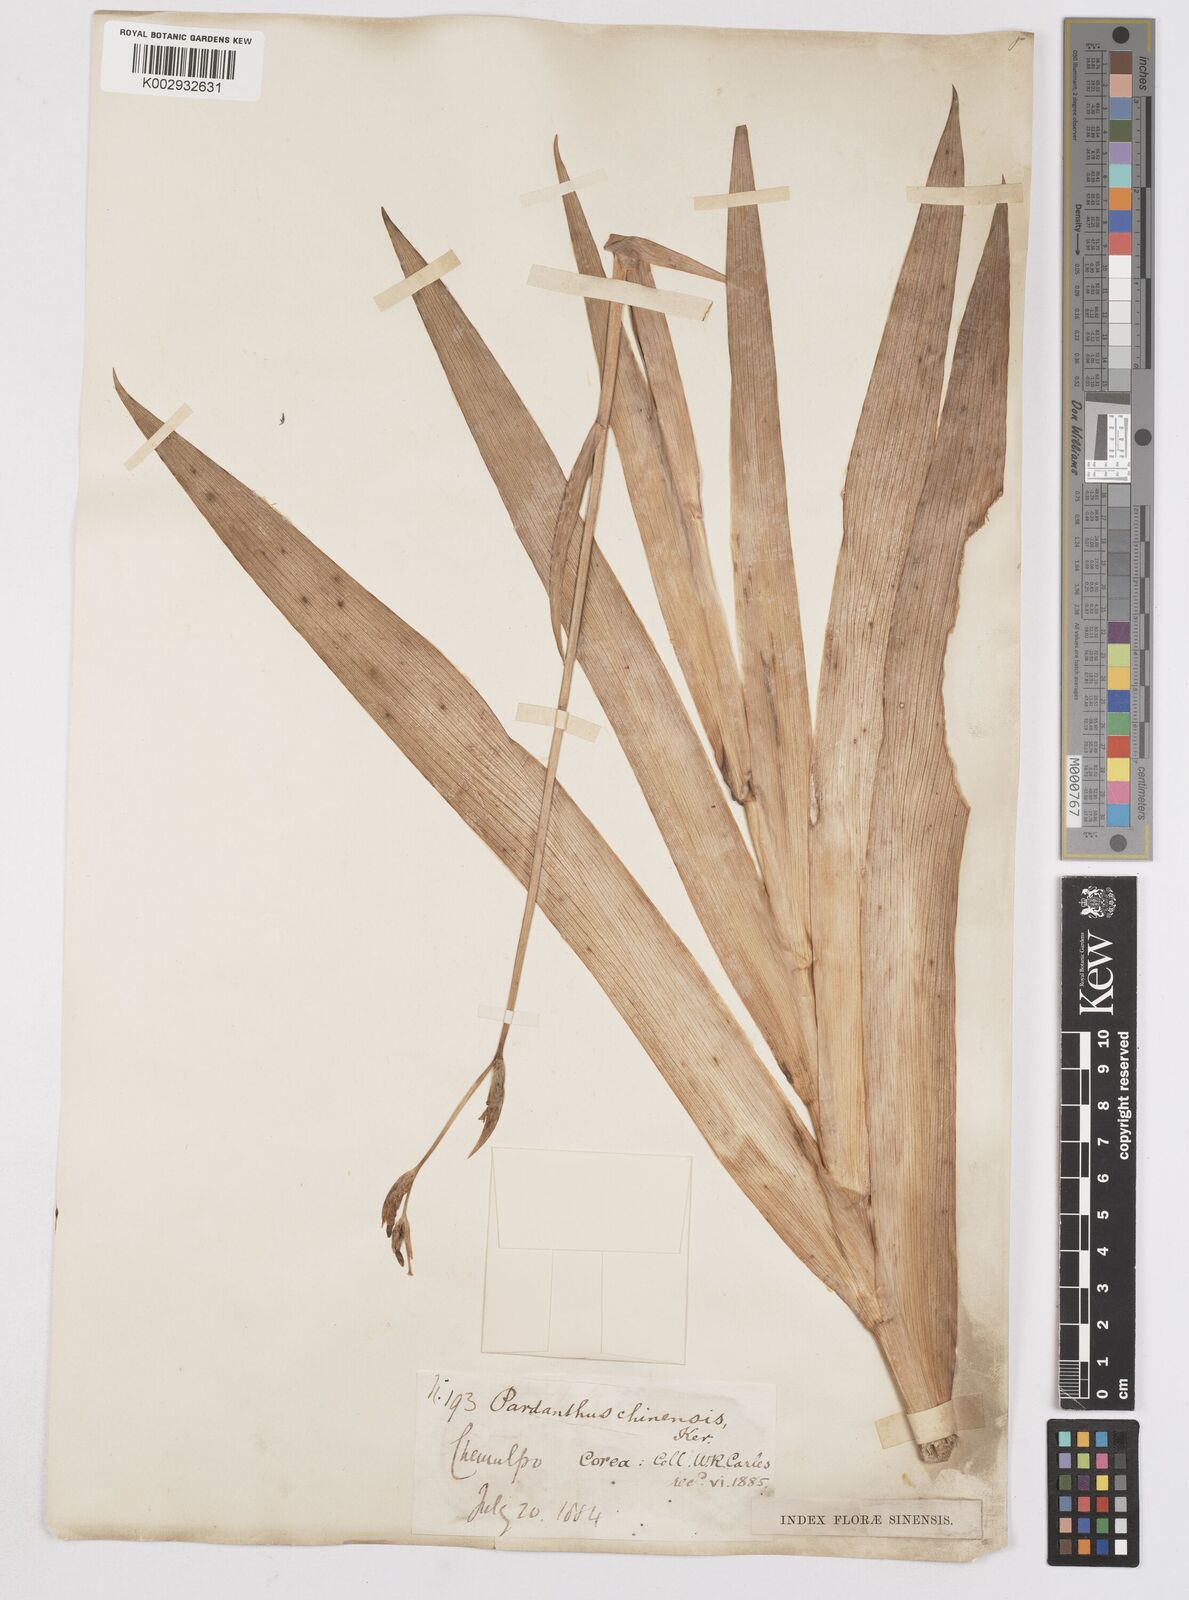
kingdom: Plantae
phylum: Tracheophyta
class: Liliopsida
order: Asparagales
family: Iridaceae
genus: Iris
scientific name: Iris
